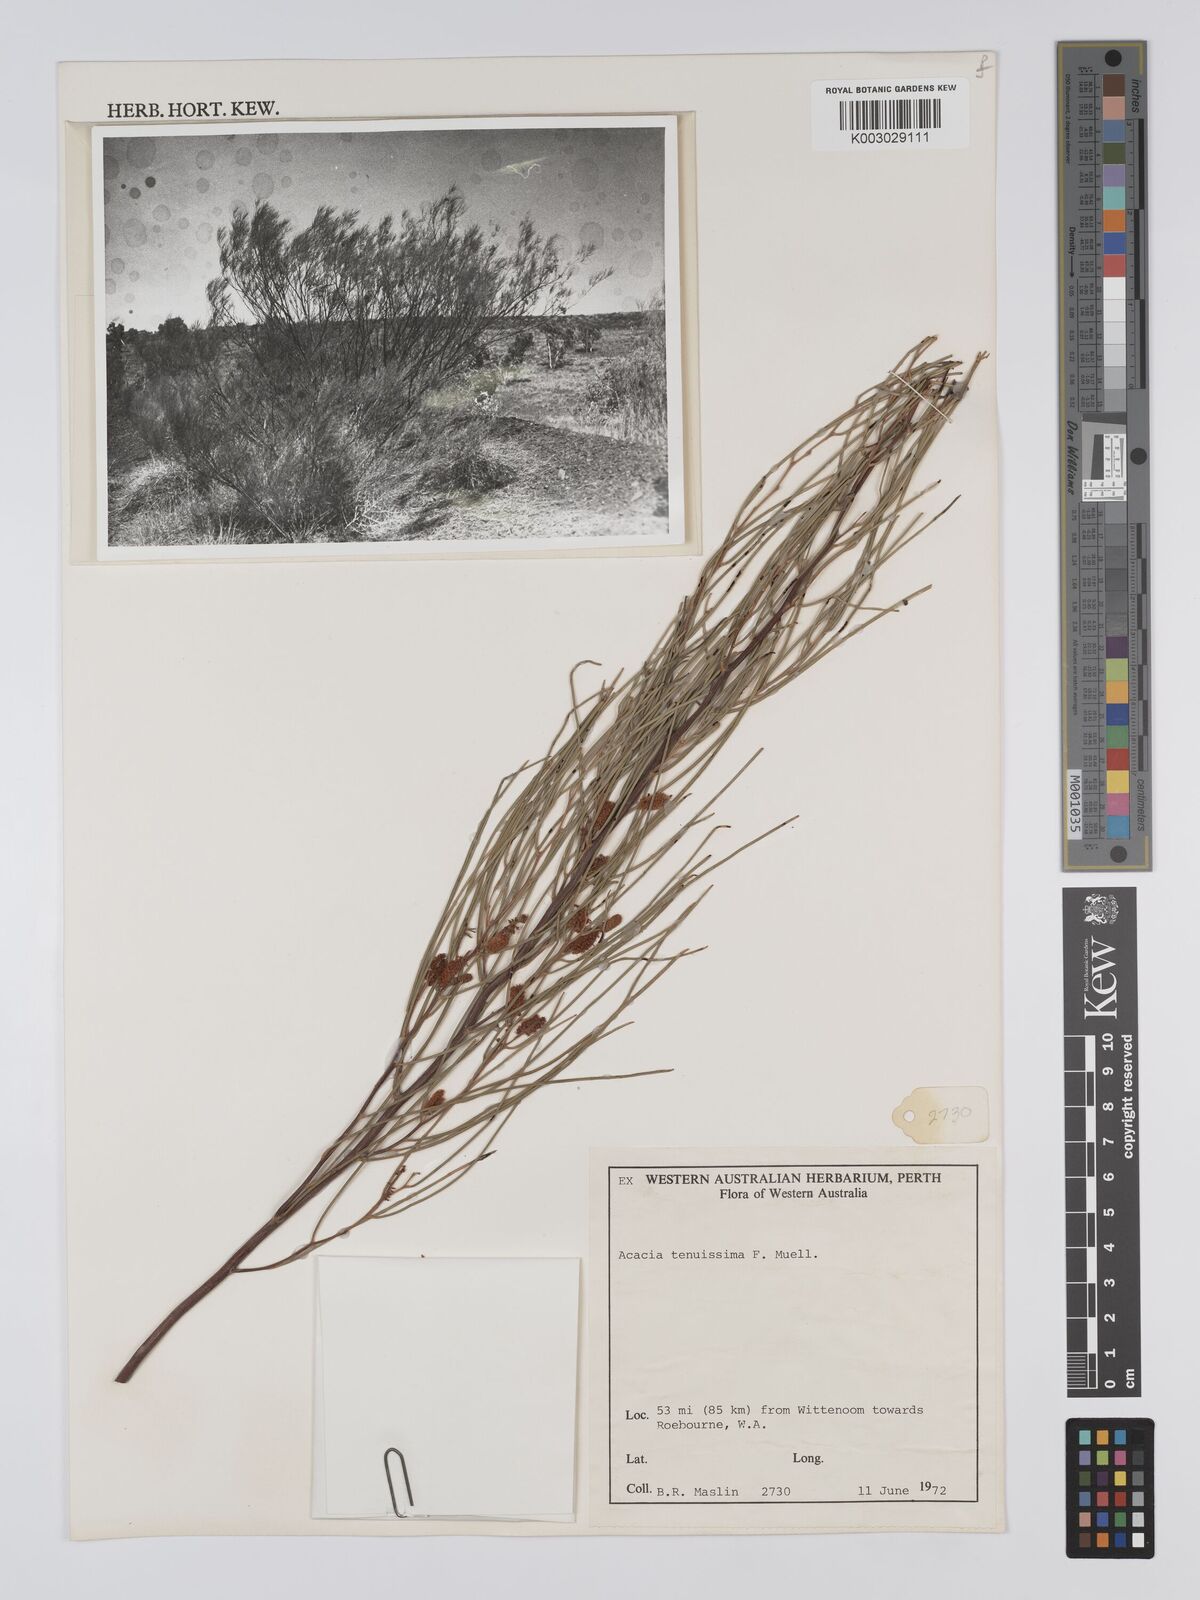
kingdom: Plantae
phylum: Tracheophyta
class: Magnoliopsida
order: Fabales
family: Fabaceae
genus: Acacia
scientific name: Acacia tenuissima
